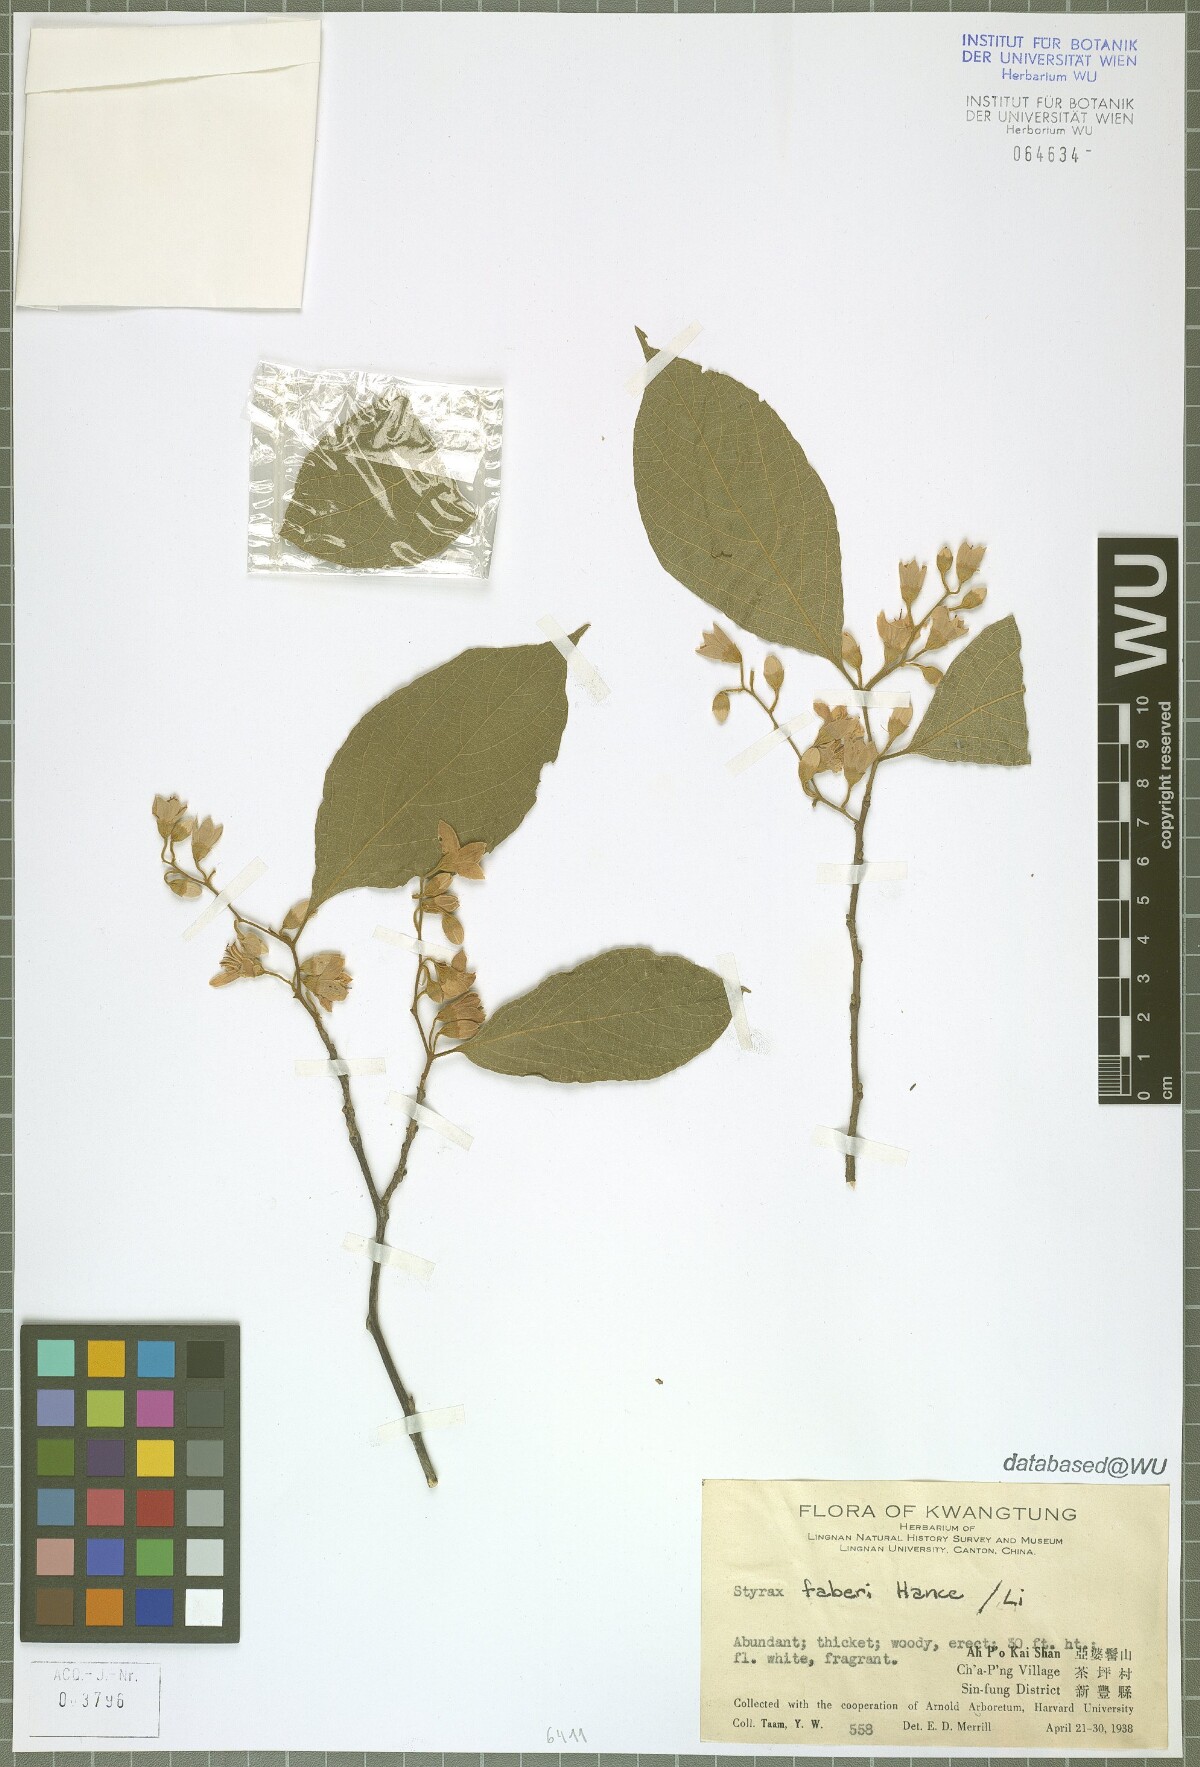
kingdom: Plantae
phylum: Tracheophyta
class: Magnoliopsida
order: Ericales
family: Styracaceae
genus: Styrax
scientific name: Styrax faberi
